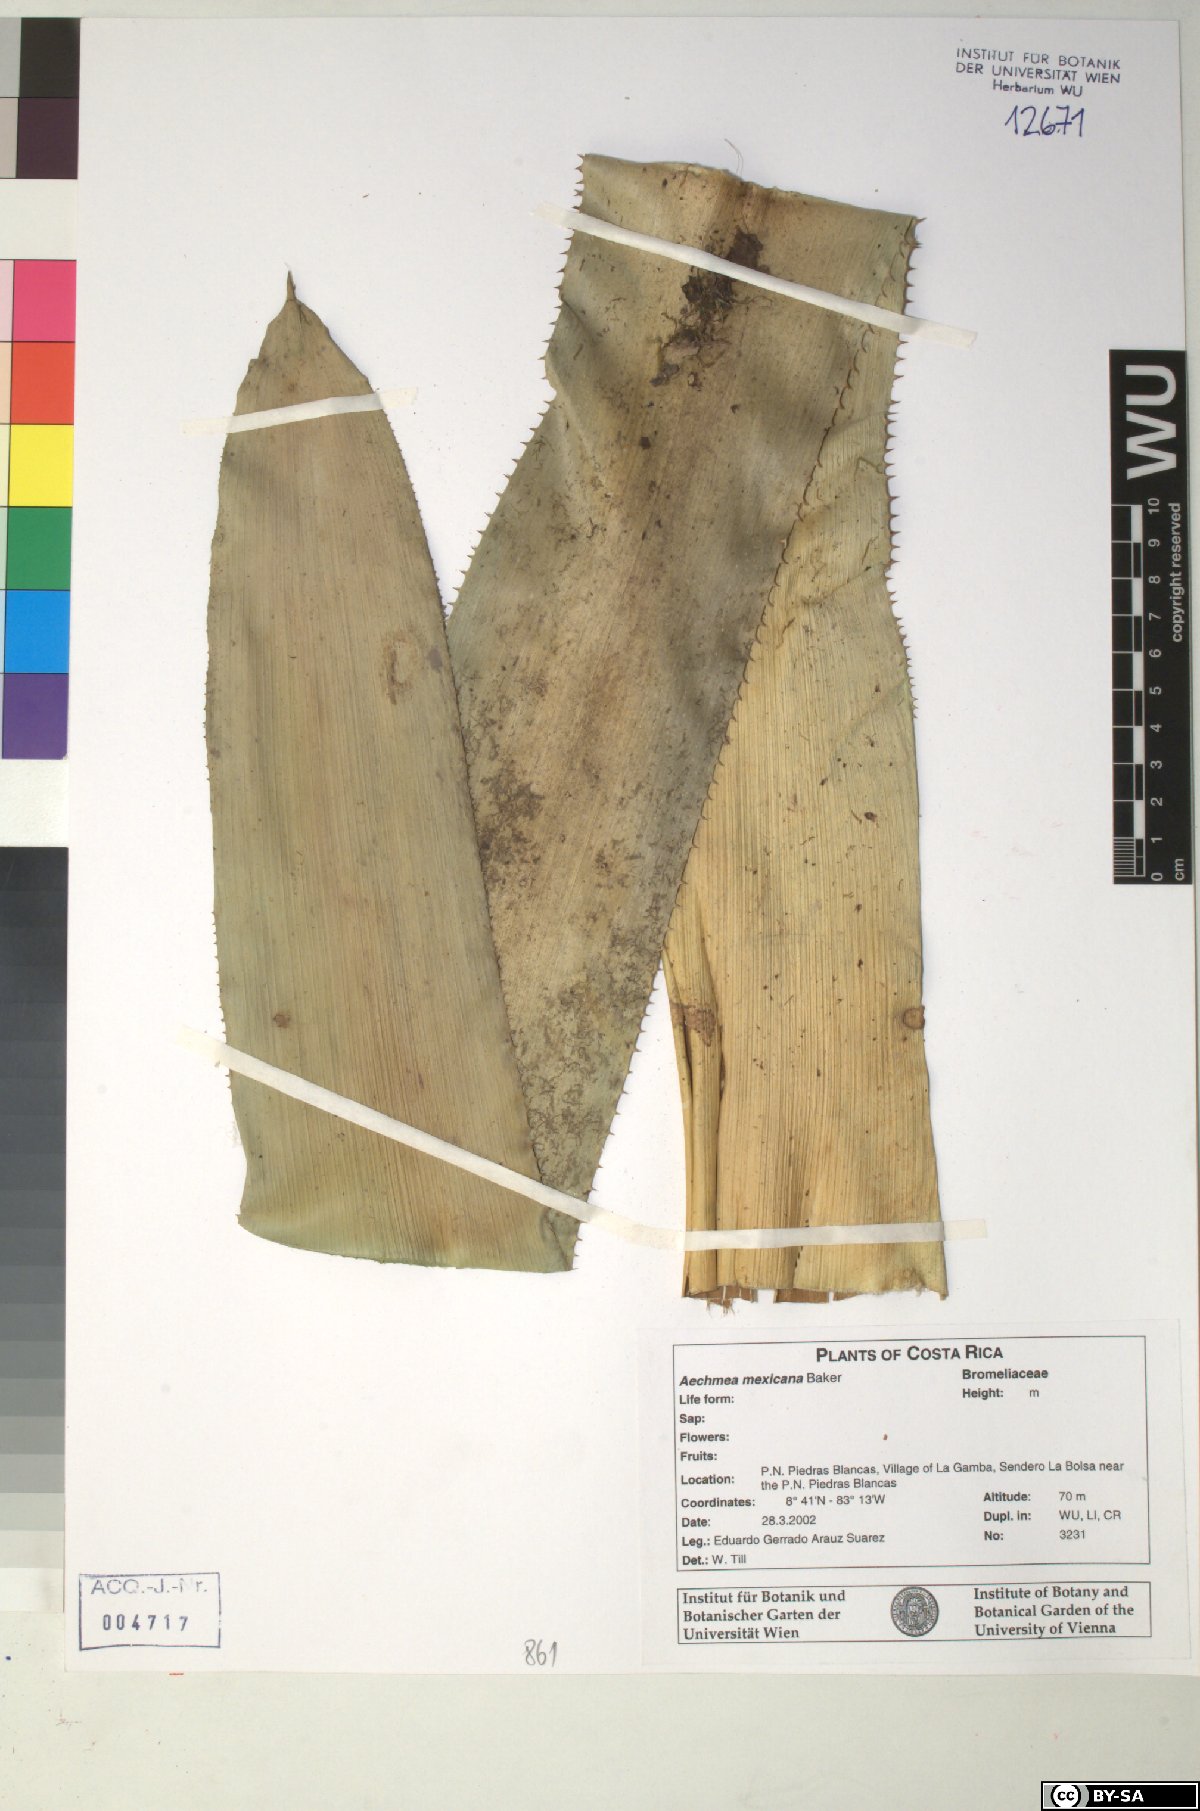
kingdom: Plantae
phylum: Tracheophyta
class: Liliopsida
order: Poales
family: Bromeliaceae
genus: Aechmea
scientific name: Aechmea mexicana
